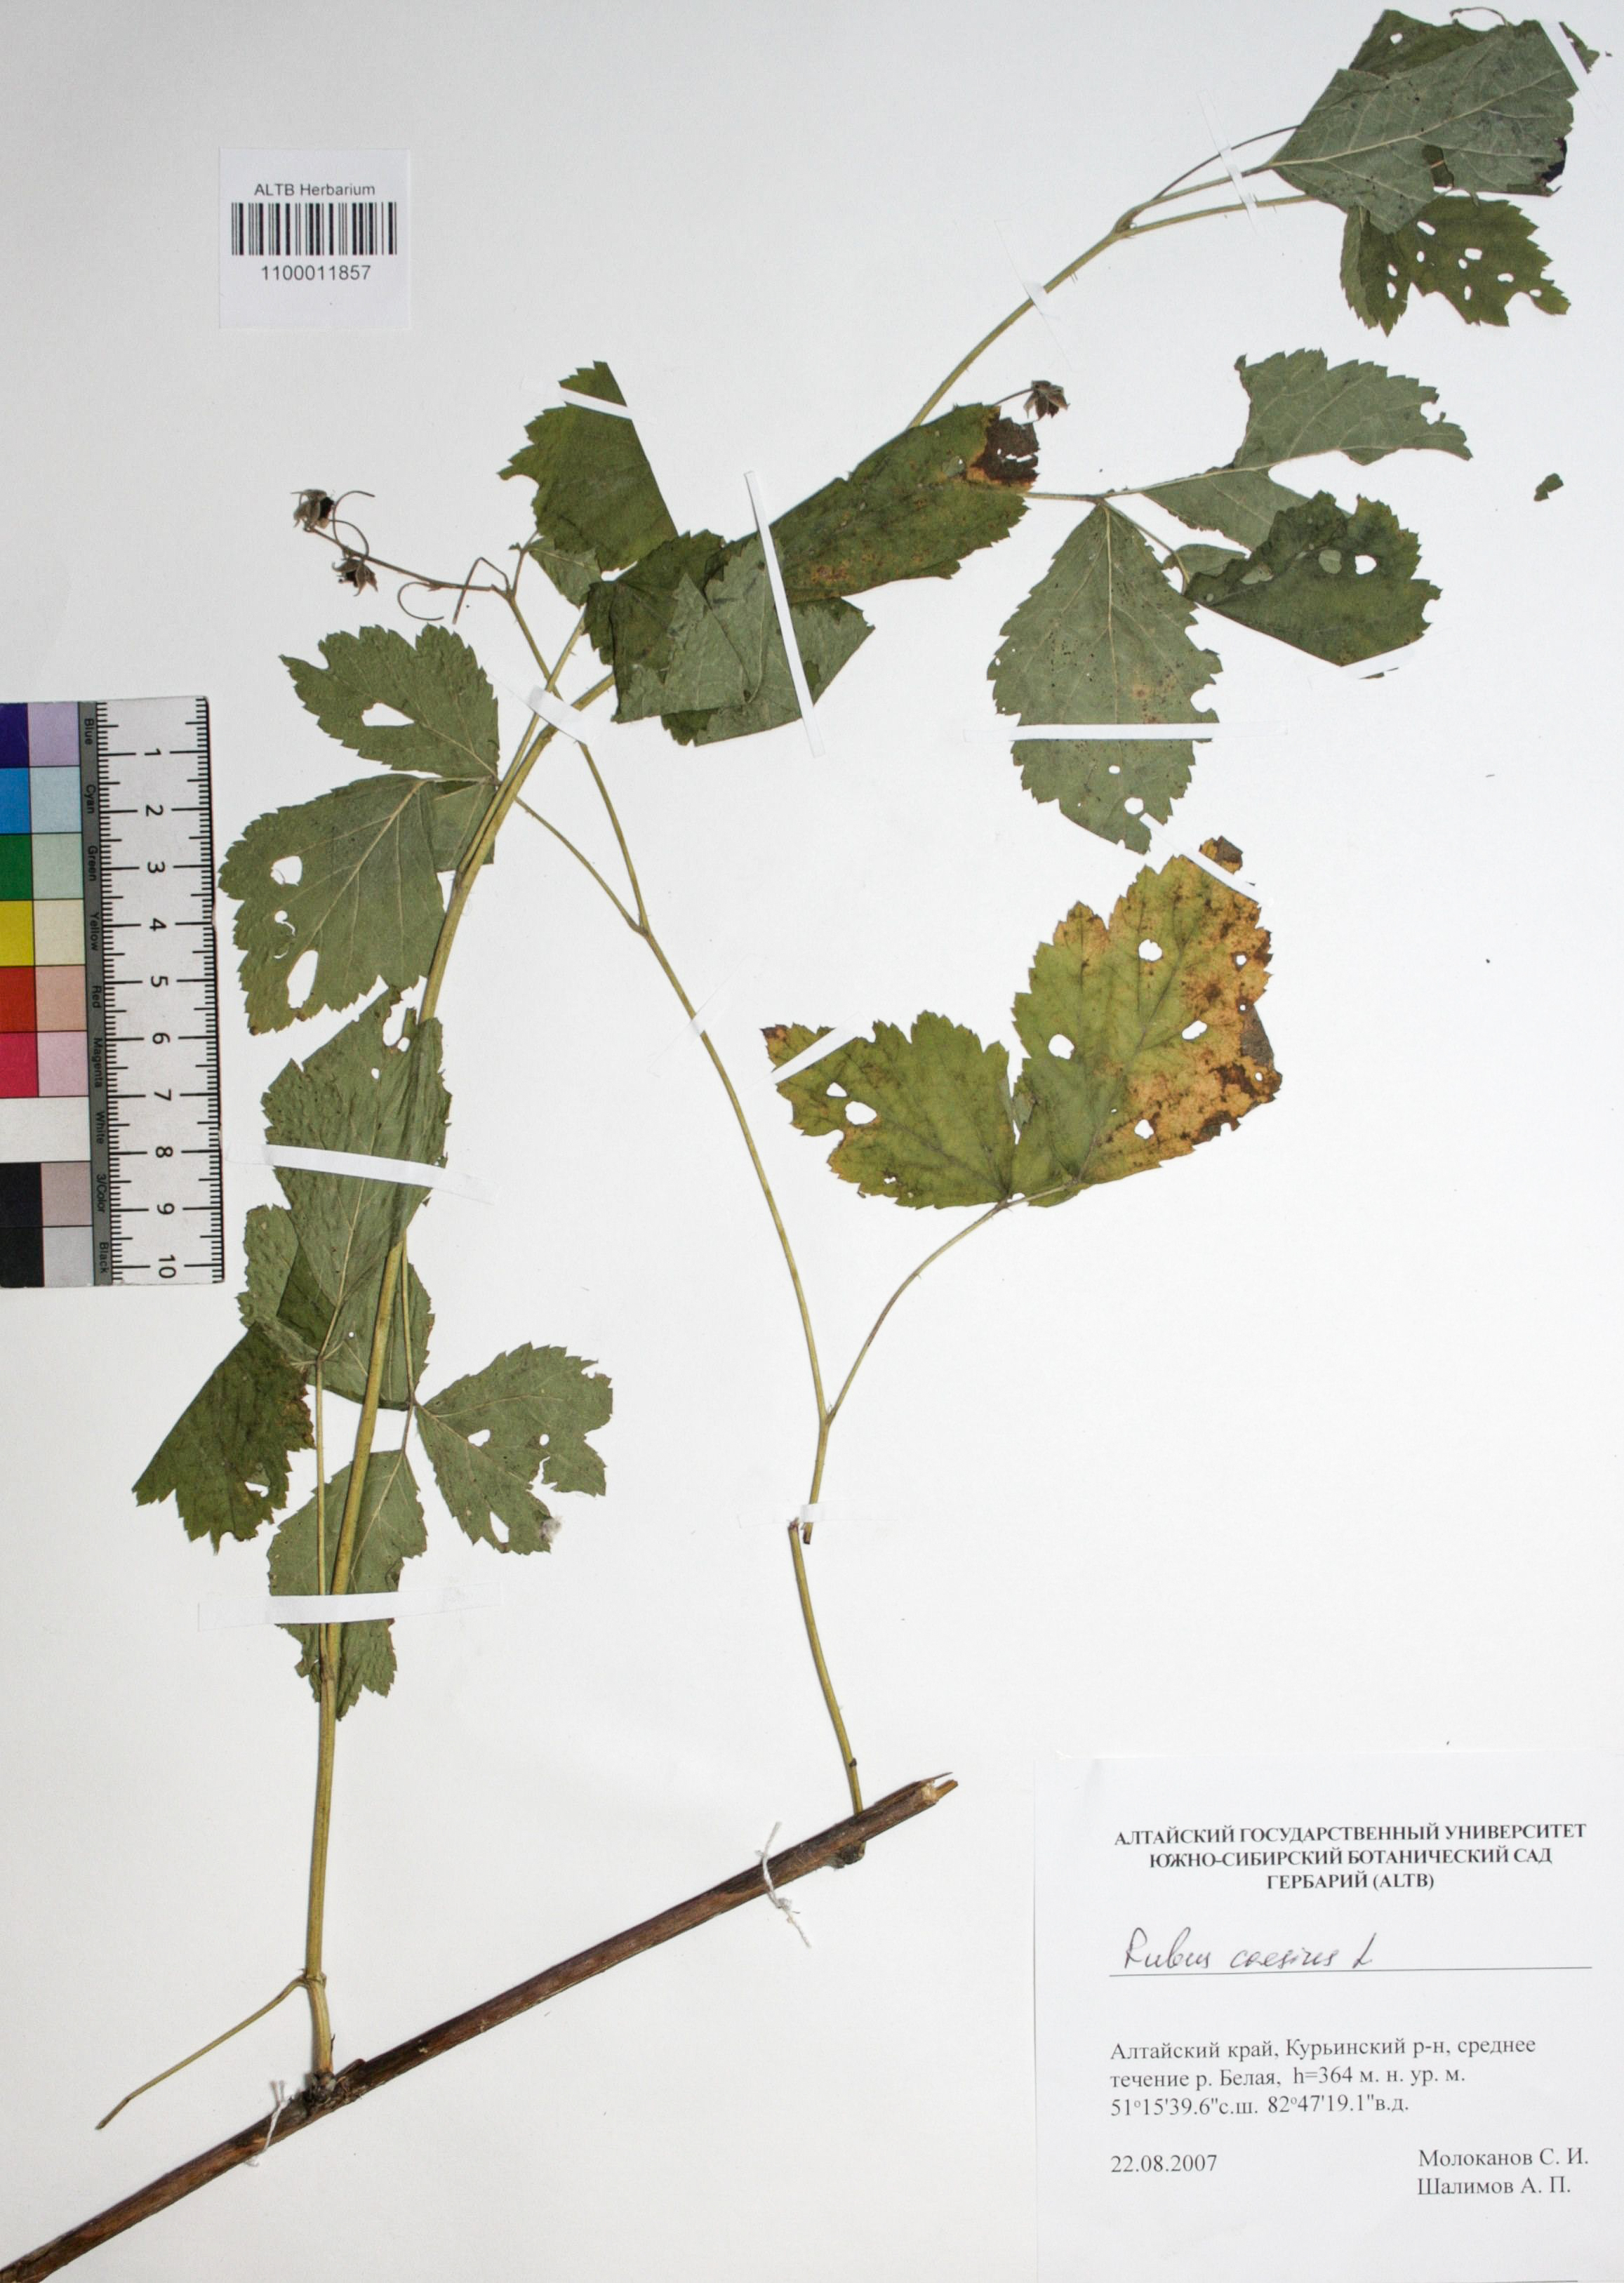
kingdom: Plantae
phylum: Tracheophyta
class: Magnoliopsida
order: Rosales
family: Rosaceae
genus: Rubus
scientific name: Rubus caesius
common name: Dewberry
